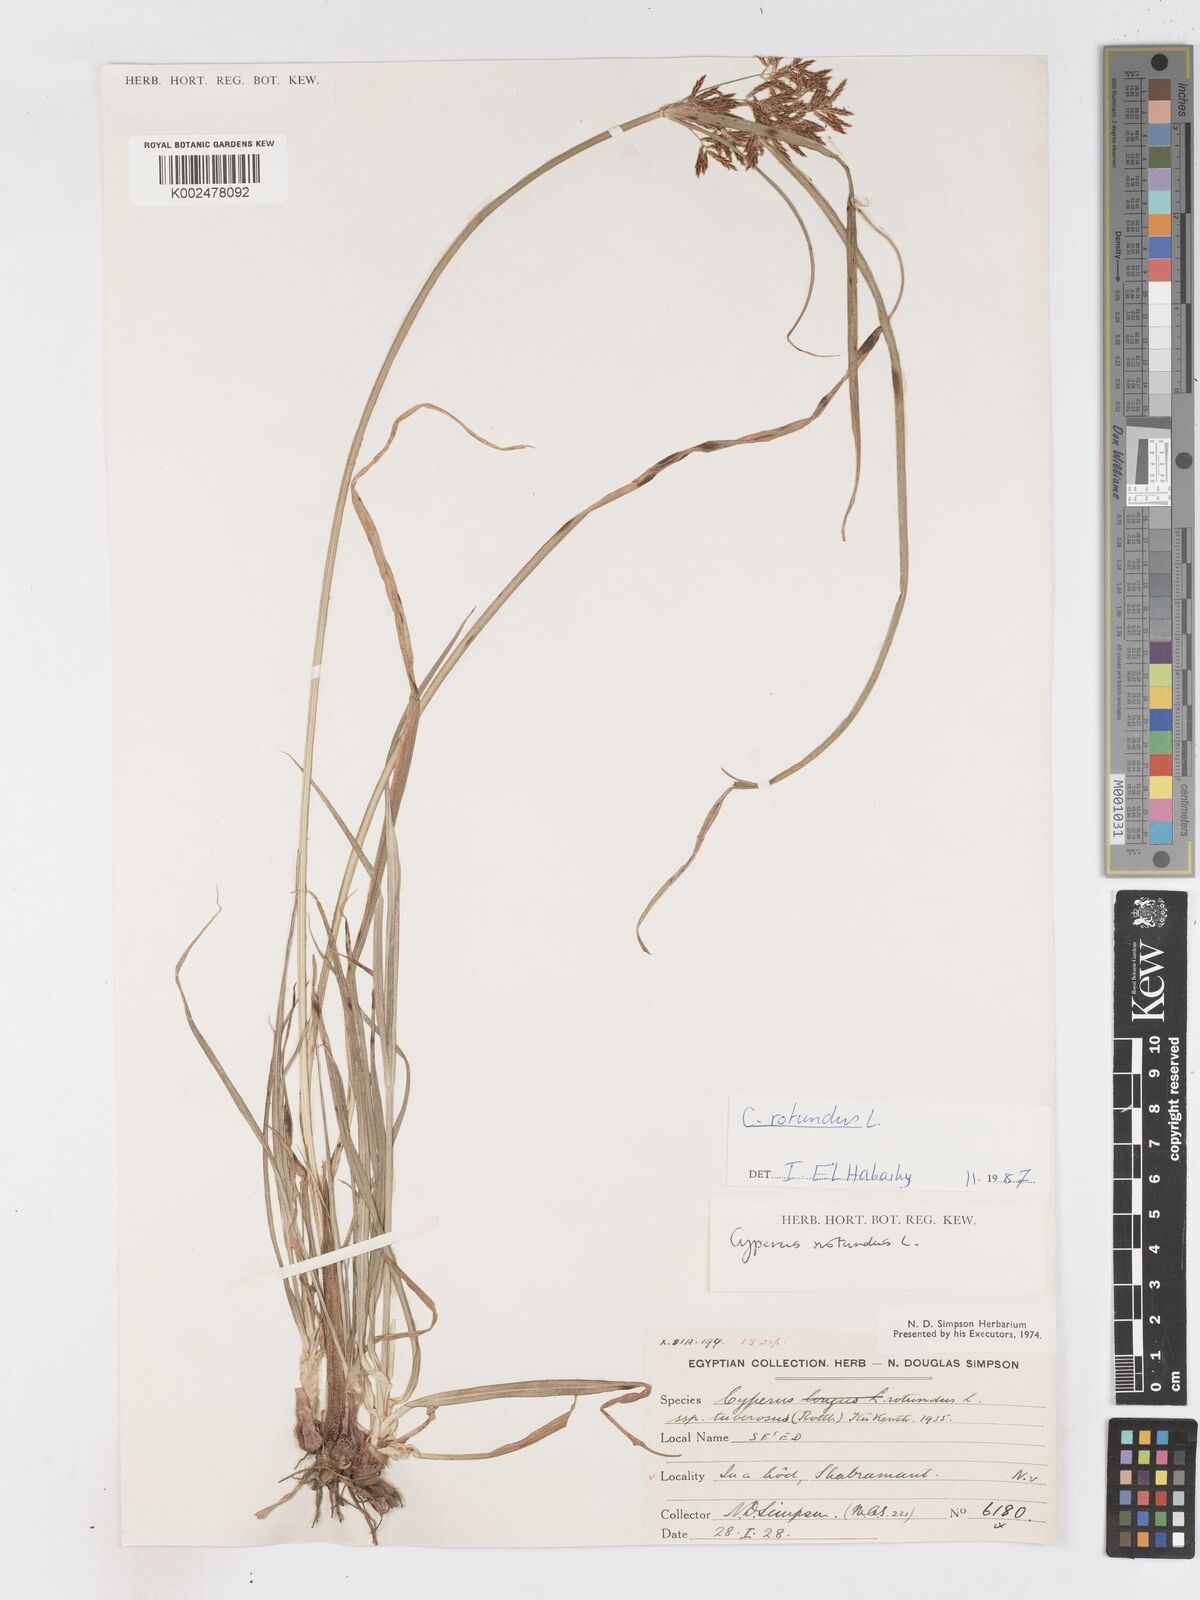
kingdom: Plantae
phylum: Tracheophyta
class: Liliopsida
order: Poales
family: Cyperaceae
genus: Cyperus
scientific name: Cyperus rotundus
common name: Nutgrass
